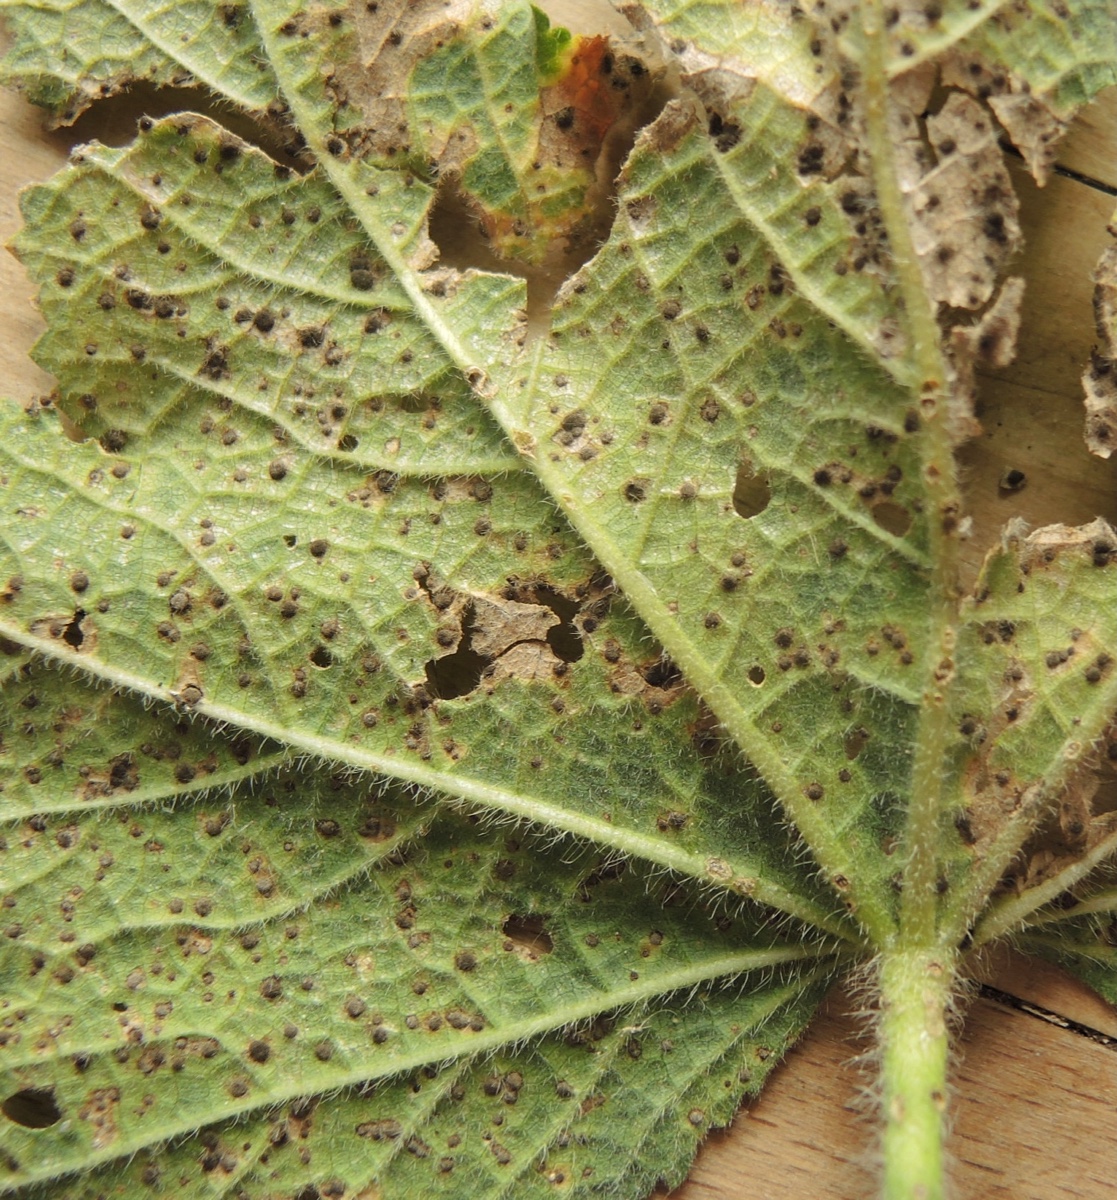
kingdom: Fungi
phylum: Basidiomycota
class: Pucciniomycetes
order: Pucciniales
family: Pucciniaceae
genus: Puccinia
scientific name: Puccinia malvacearum
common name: stokrose-tvecellerust
